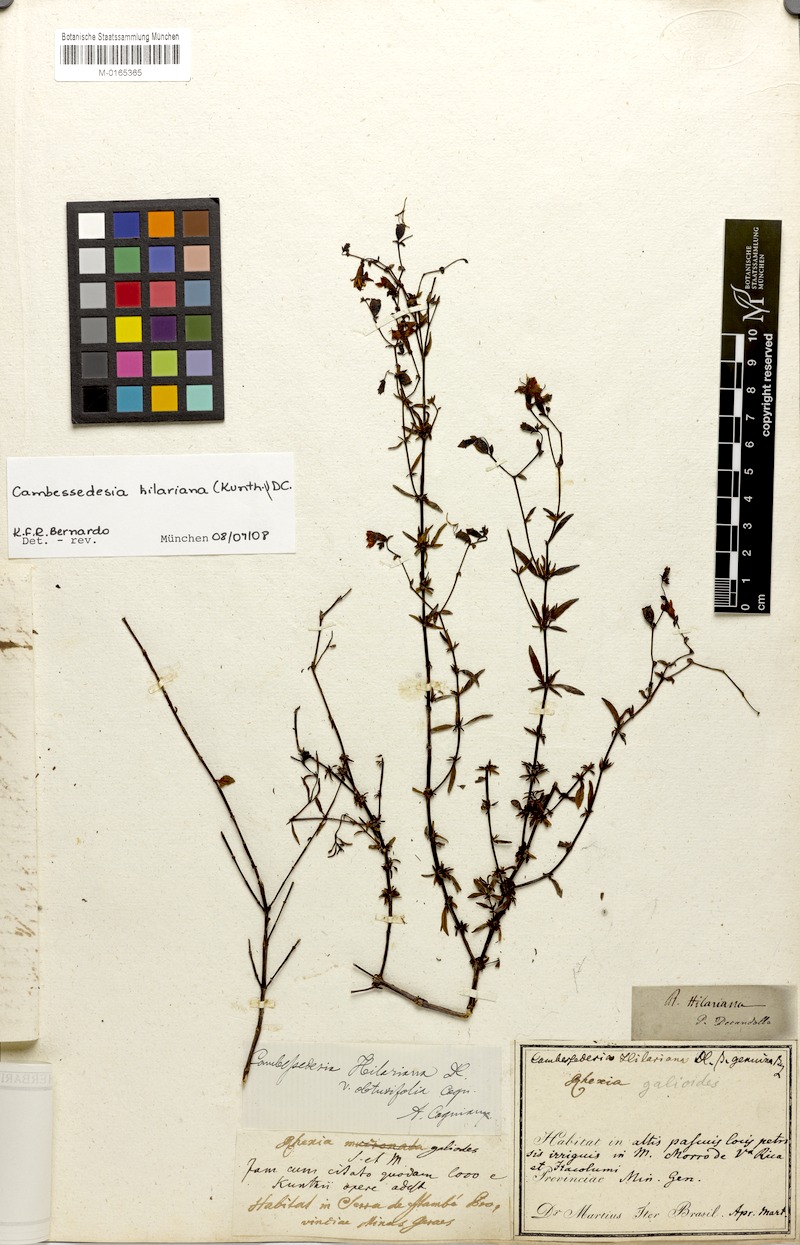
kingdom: Plantae
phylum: Tracheophyta
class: Magnoliopsida
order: Myrtales
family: Melastomataceae
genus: Cambessedesia
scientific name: Cambessedesia hilariana
